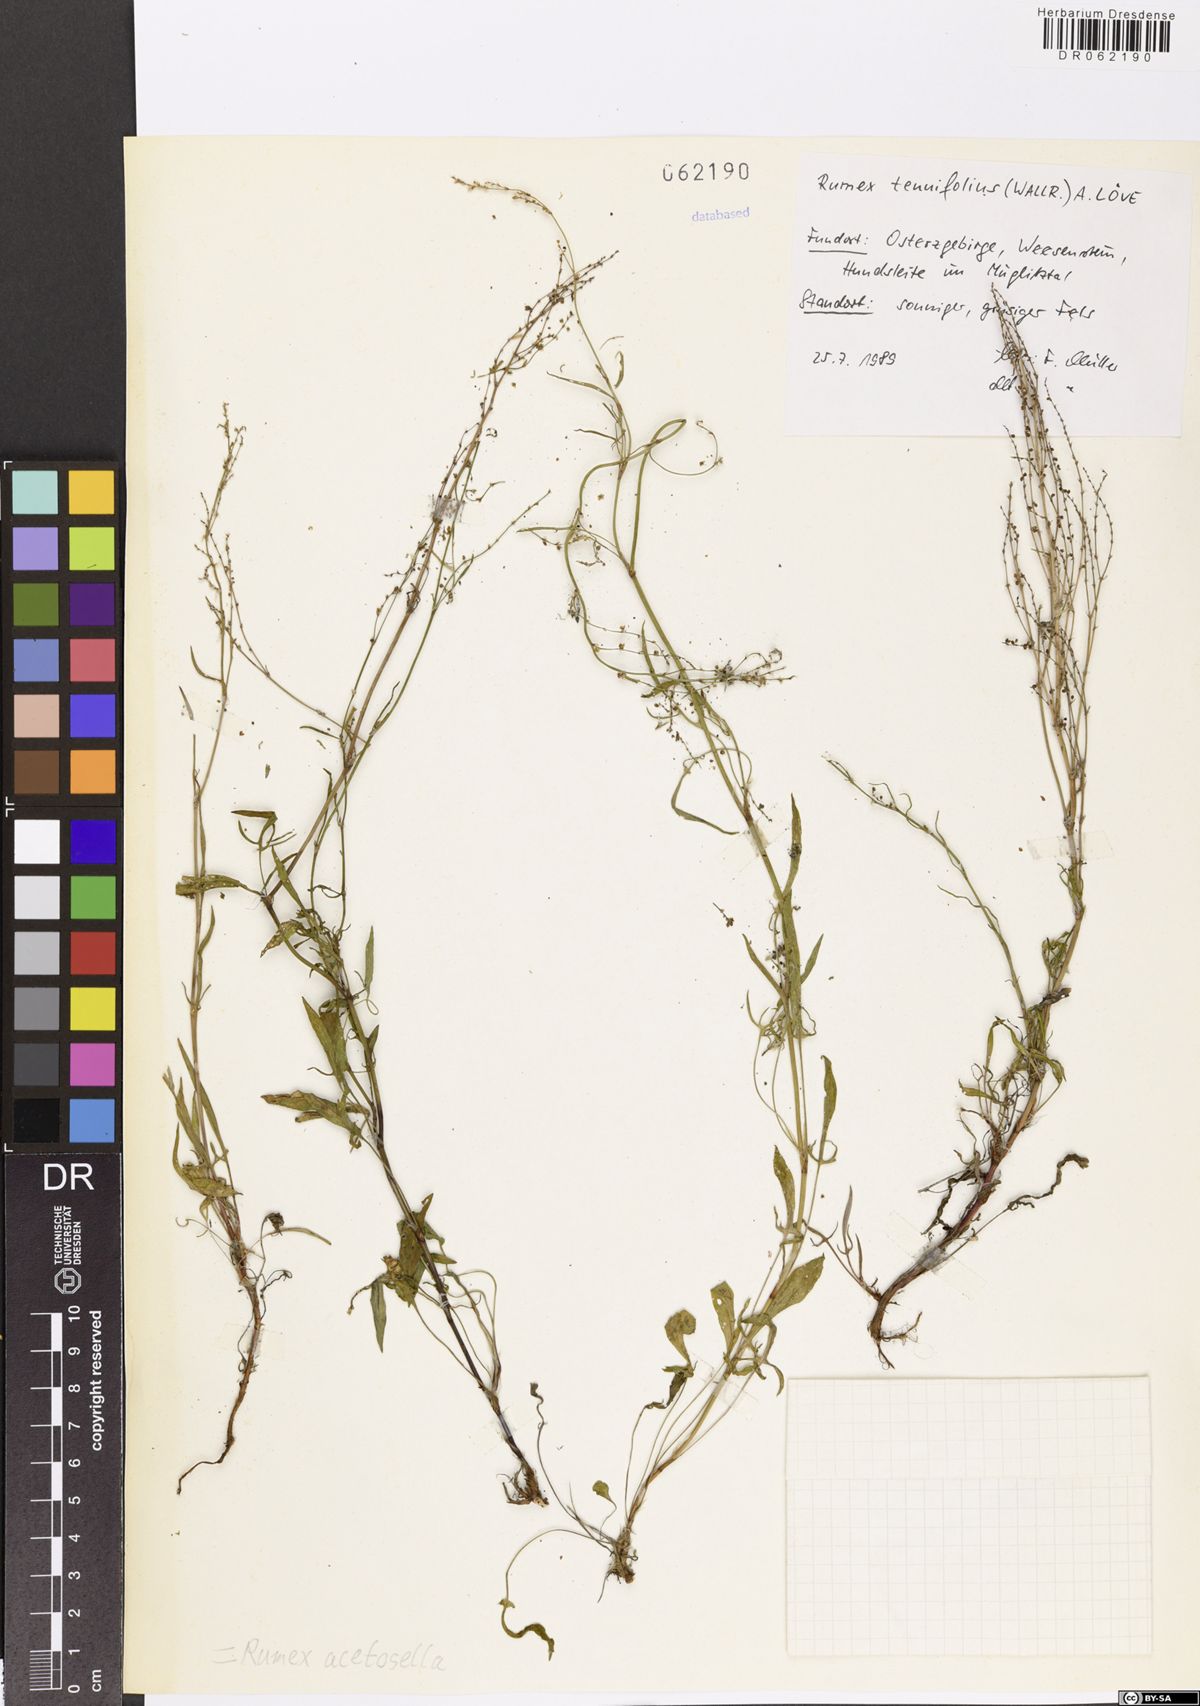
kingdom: Plantae
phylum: Tracheophyta
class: Magnoliopsida
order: Caryophyllales
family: Polygonaceae
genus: Rumex
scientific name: Rumex acetosella
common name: Common sheep sorrel
